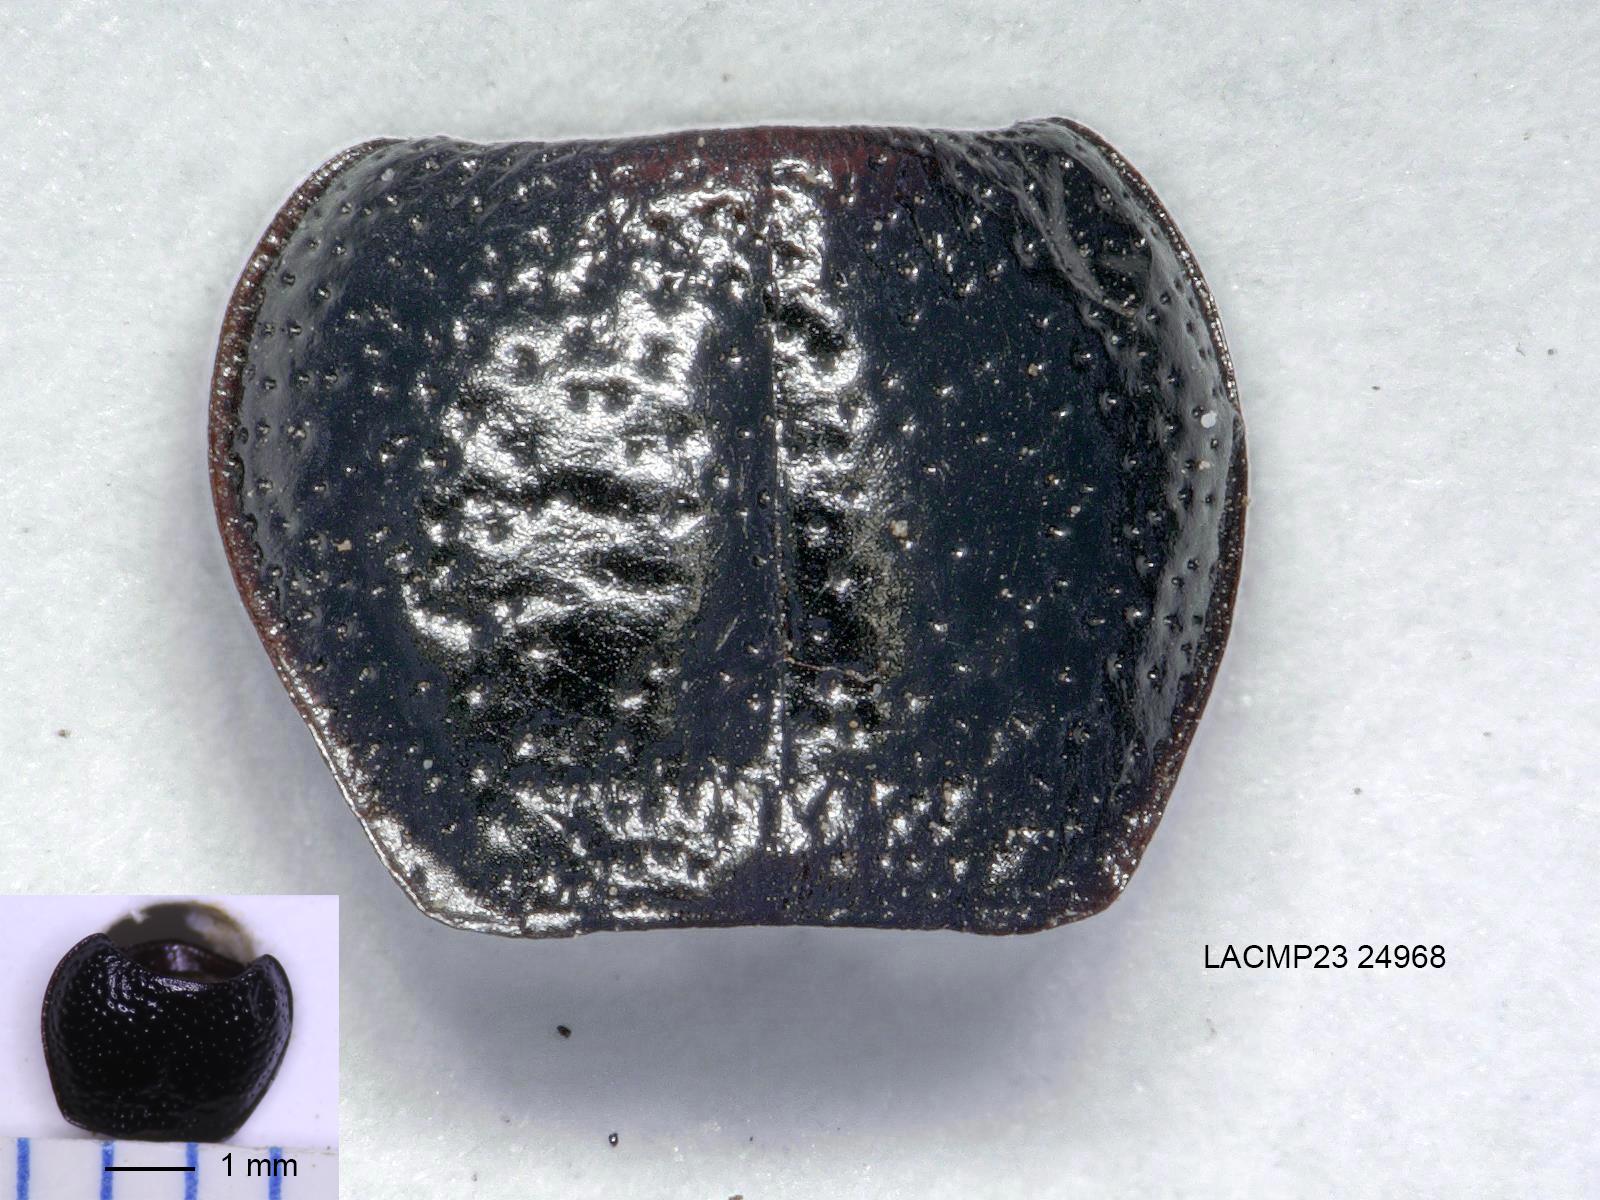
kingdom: Animalia
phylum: Arthropoda
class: Insecta
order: Coleoptera
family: Carabidae
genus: Dicheirus
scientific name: Dicheirus dilatatus
